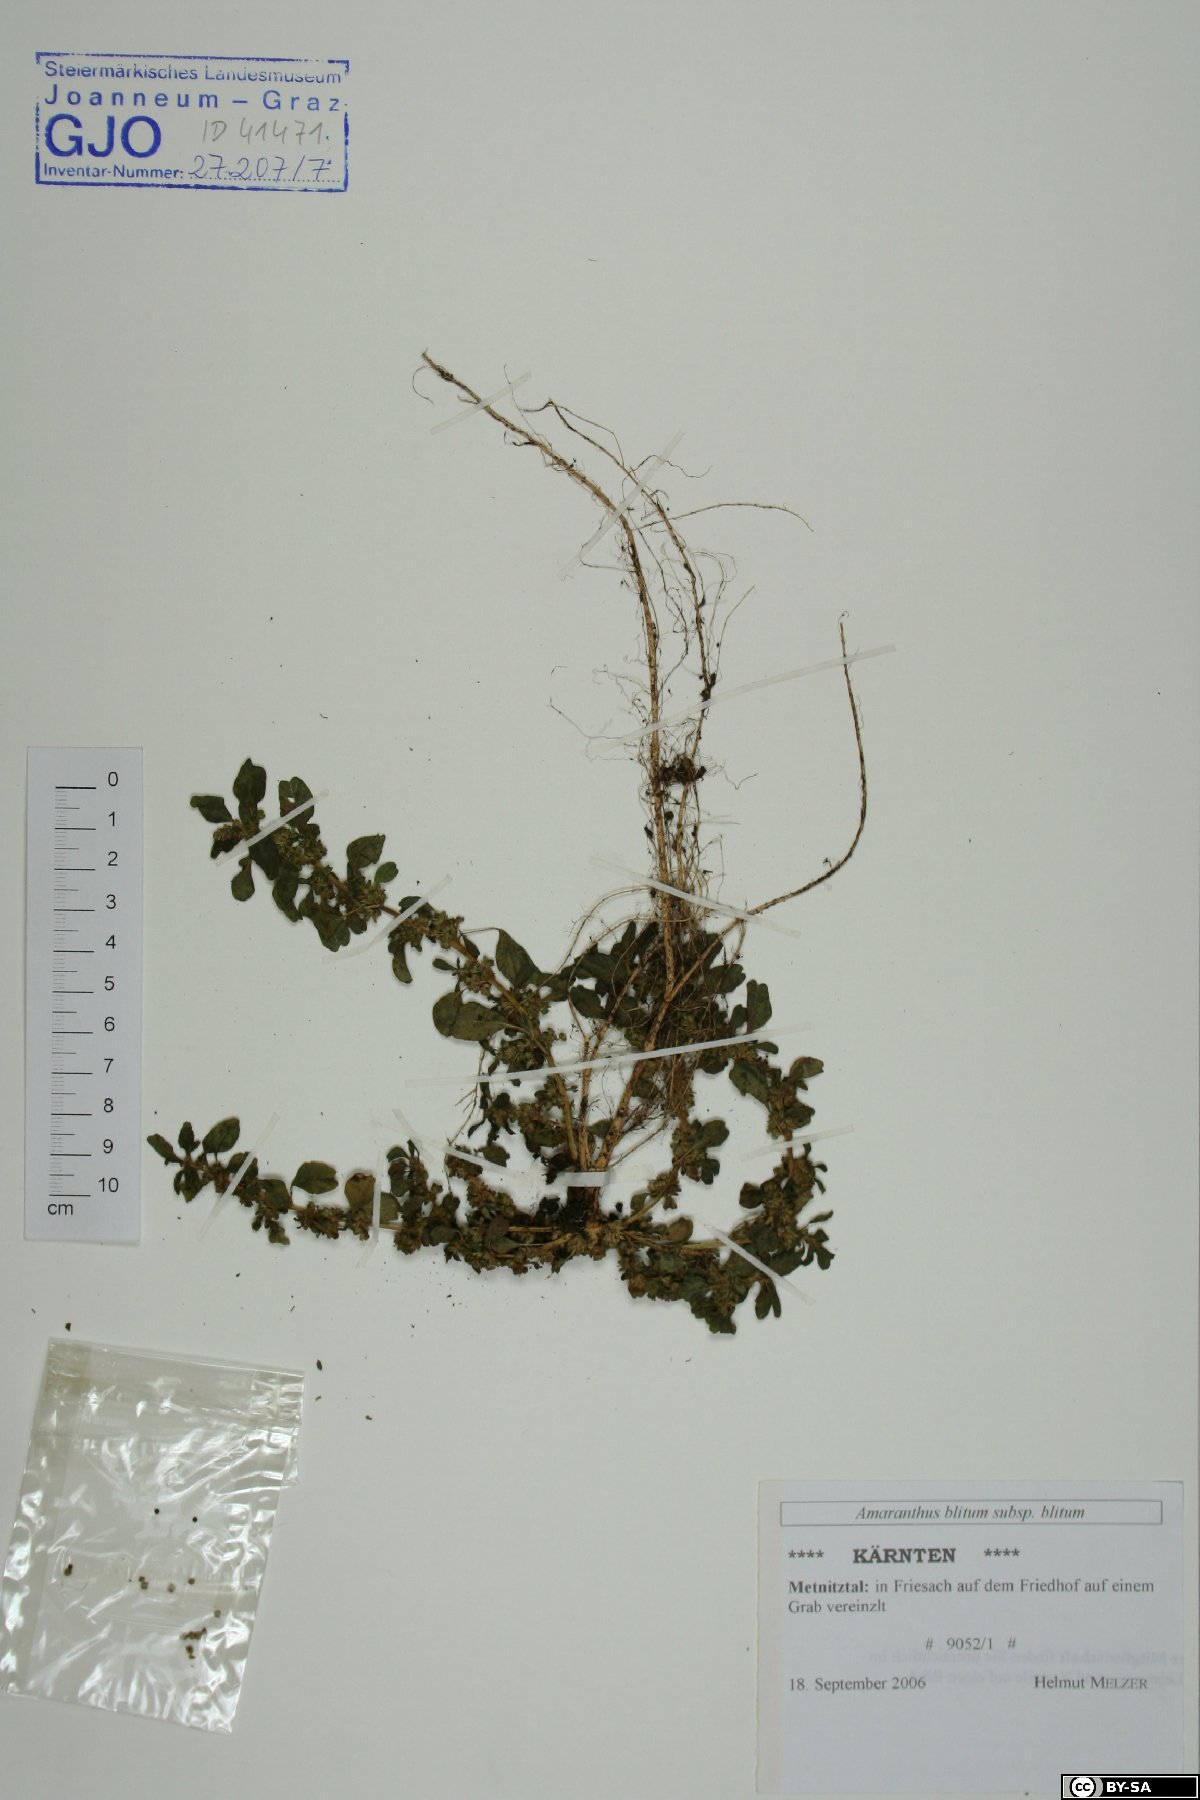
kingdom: Plantae
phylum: Tracheophyta
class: Magnoliopsida
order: Caryophyllales
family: Amaranthaceae
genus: Amaranthus
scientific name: Amaranthus blitum
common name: Purple amaranth
